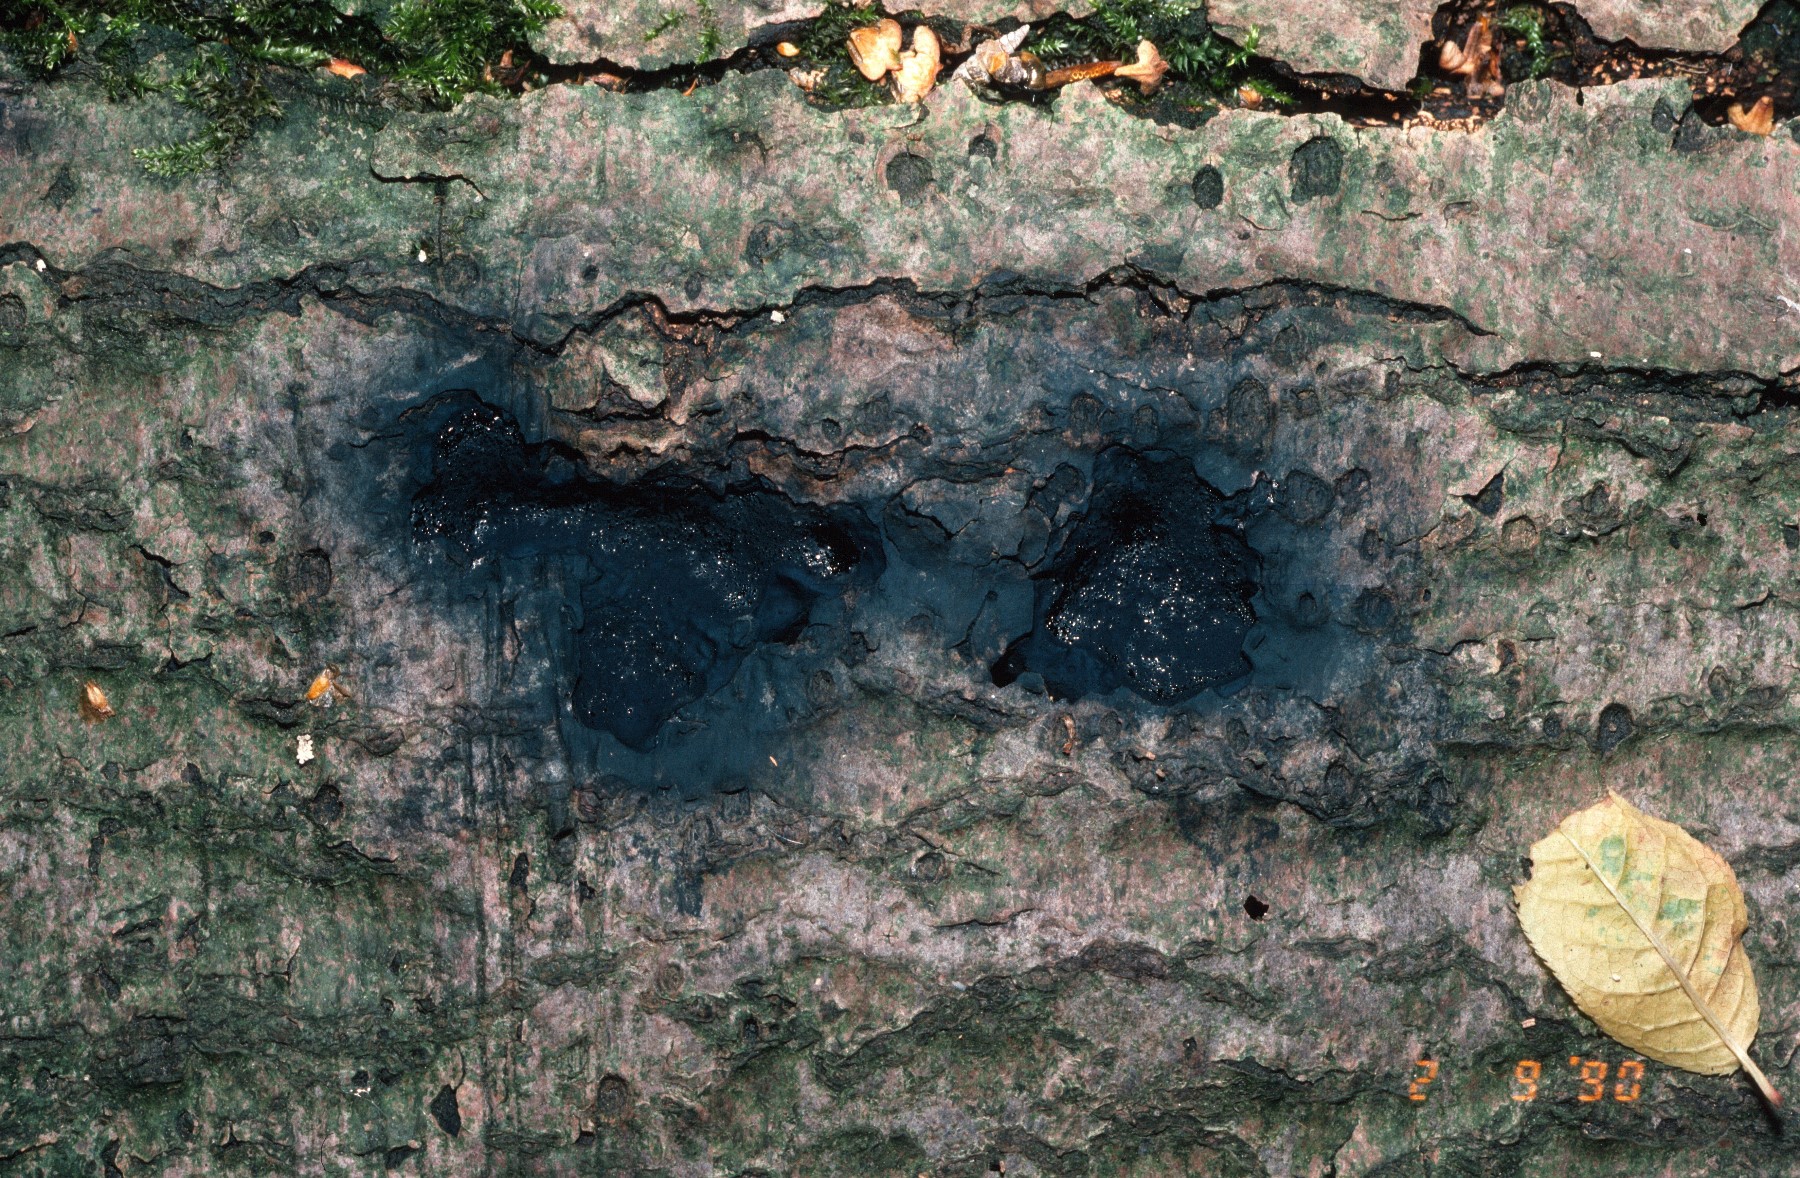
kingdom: Fungi
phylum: Ascomycota
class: Sordariomycetes
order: Boliniales
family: Boliniaceae
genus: Camaropella
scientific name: Camaropella lutea
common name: gulsplint-kulsnegl
